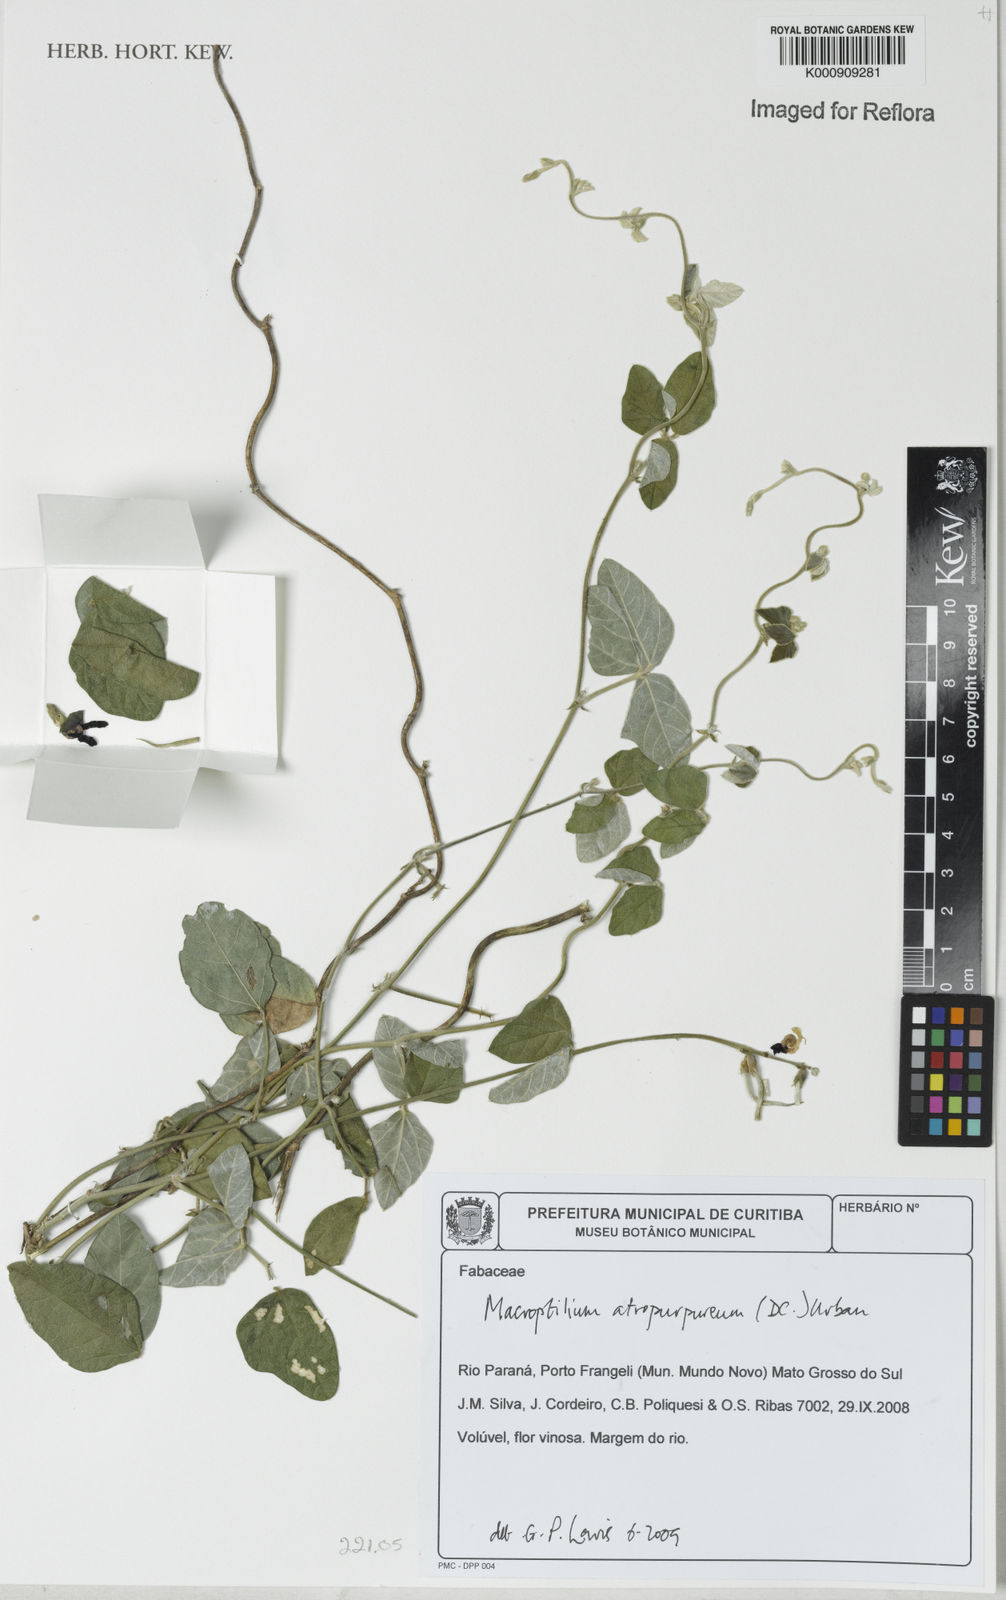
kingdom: Plantae
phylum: Tracheophyta
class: Magnoliopsida
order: Fabales
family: Fabaceae
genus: Macroptilium
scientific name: Macroptilium atropurpureum
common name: Purple bushbean
